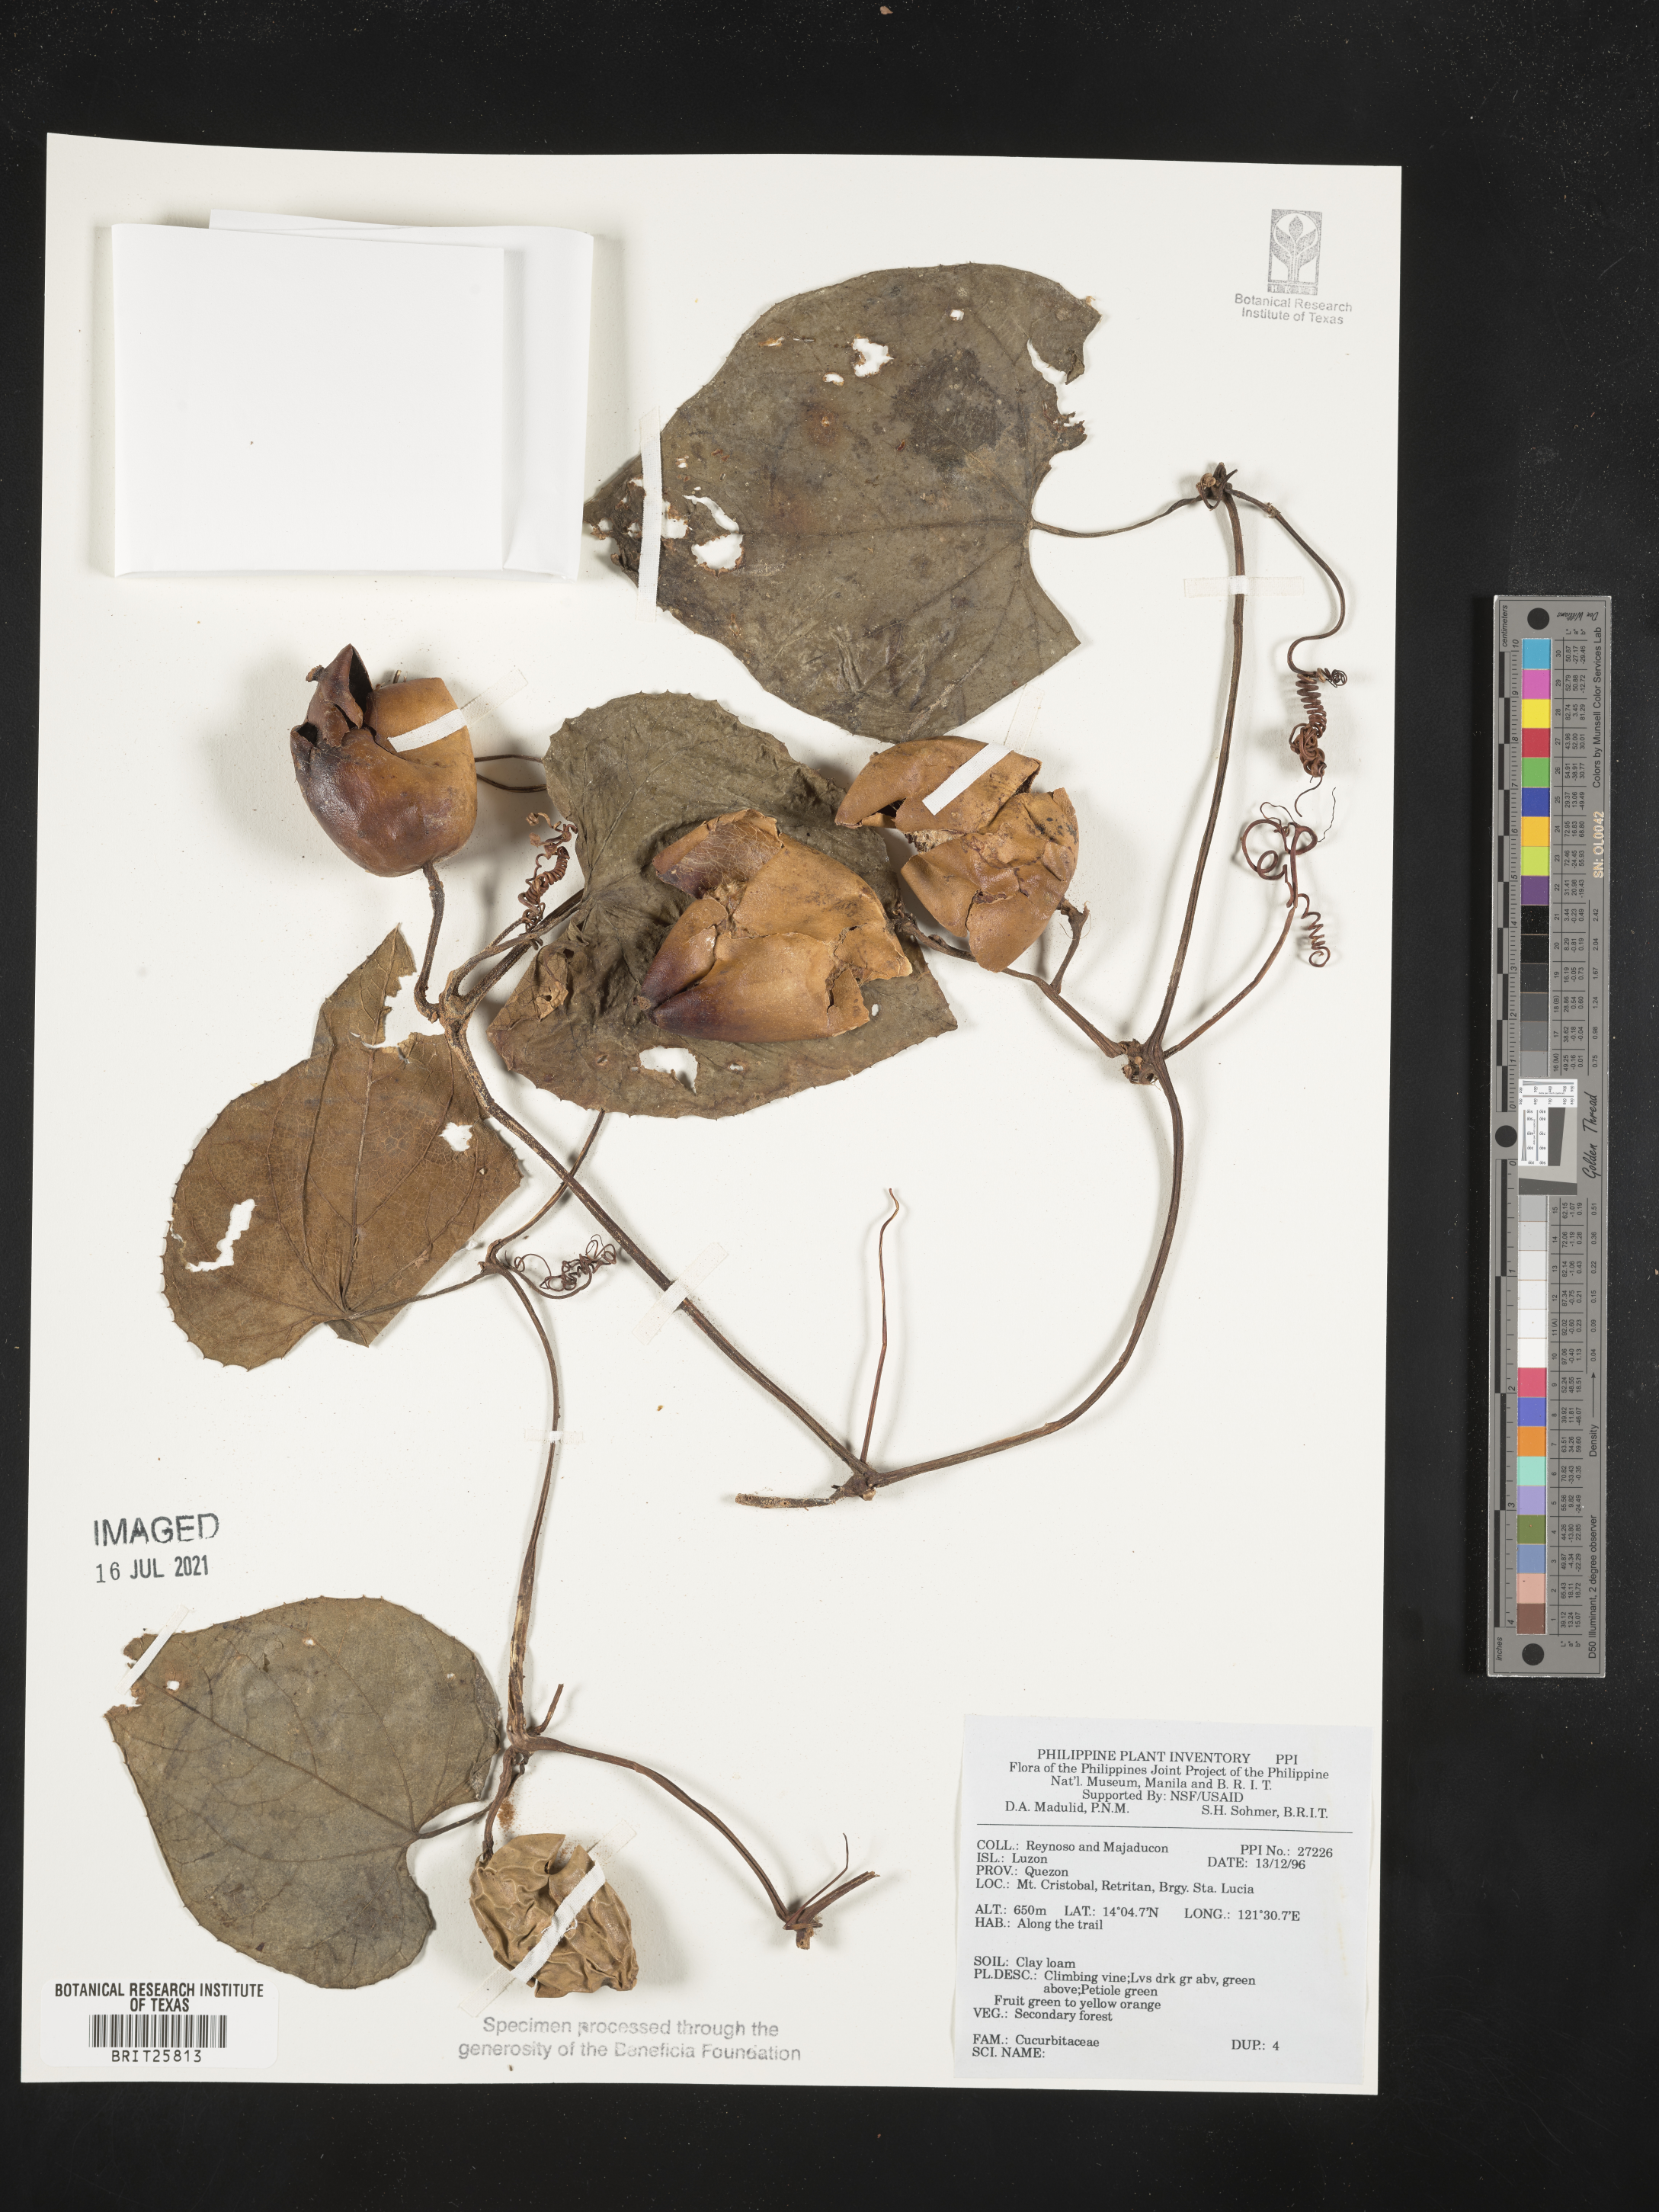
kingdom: Plantae
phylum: Tracheophyta
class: Magnoliopsida
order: Cucurbitales
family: Cucurbitaceae
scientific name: Cucurbitaceae
